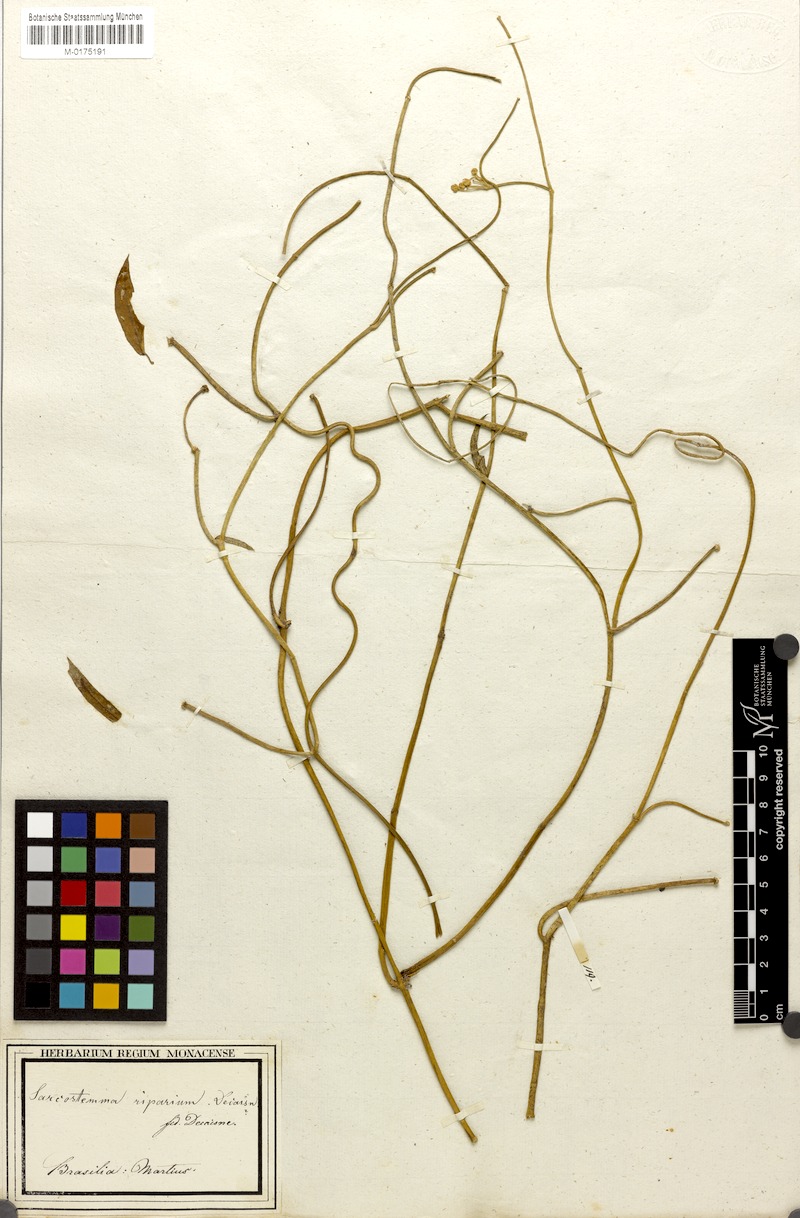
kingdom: Plantae
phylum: Tracheophyta
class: Magnoliopsida
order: Gentianales
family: Apocynaceae
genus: Funastrum
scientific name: Funastrum clausum
